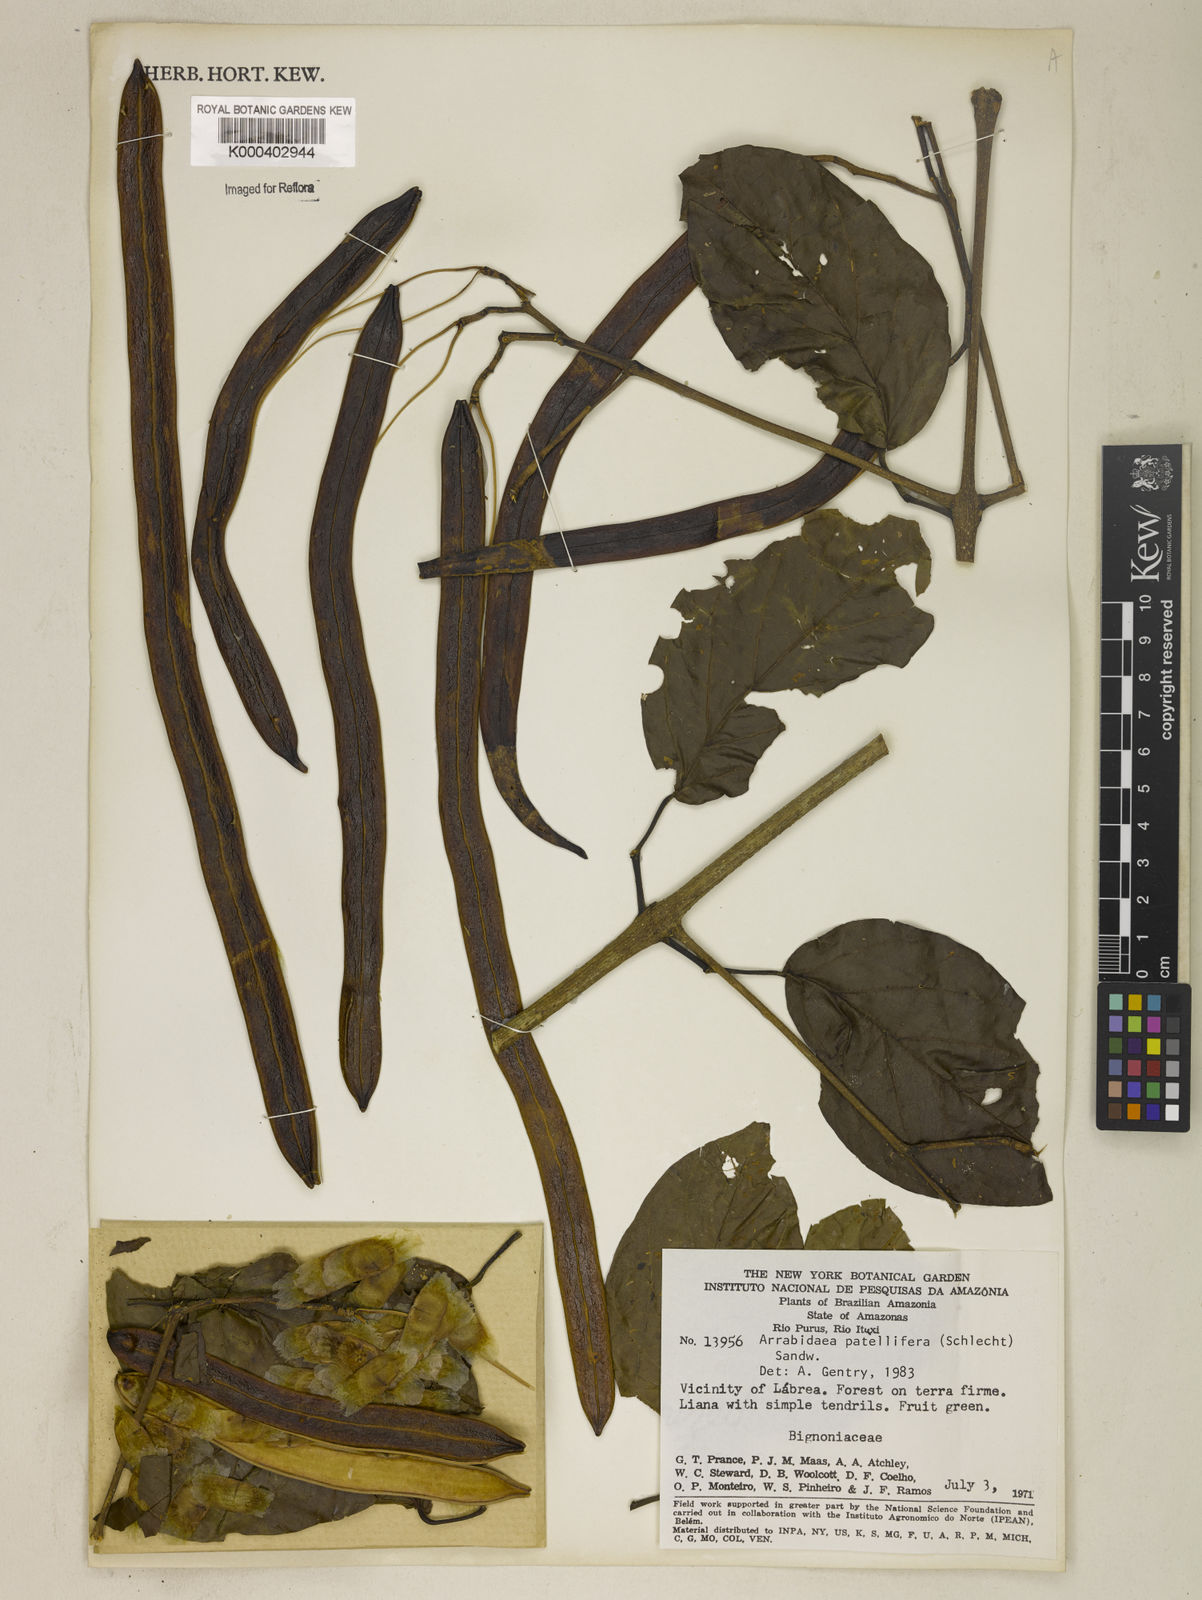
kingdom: Plantae
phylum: Tracheophyta
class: Magnoliopsida
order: Lamiales
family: Bignoniaceae
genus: Fridericia
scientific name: Fridericia patellifera
